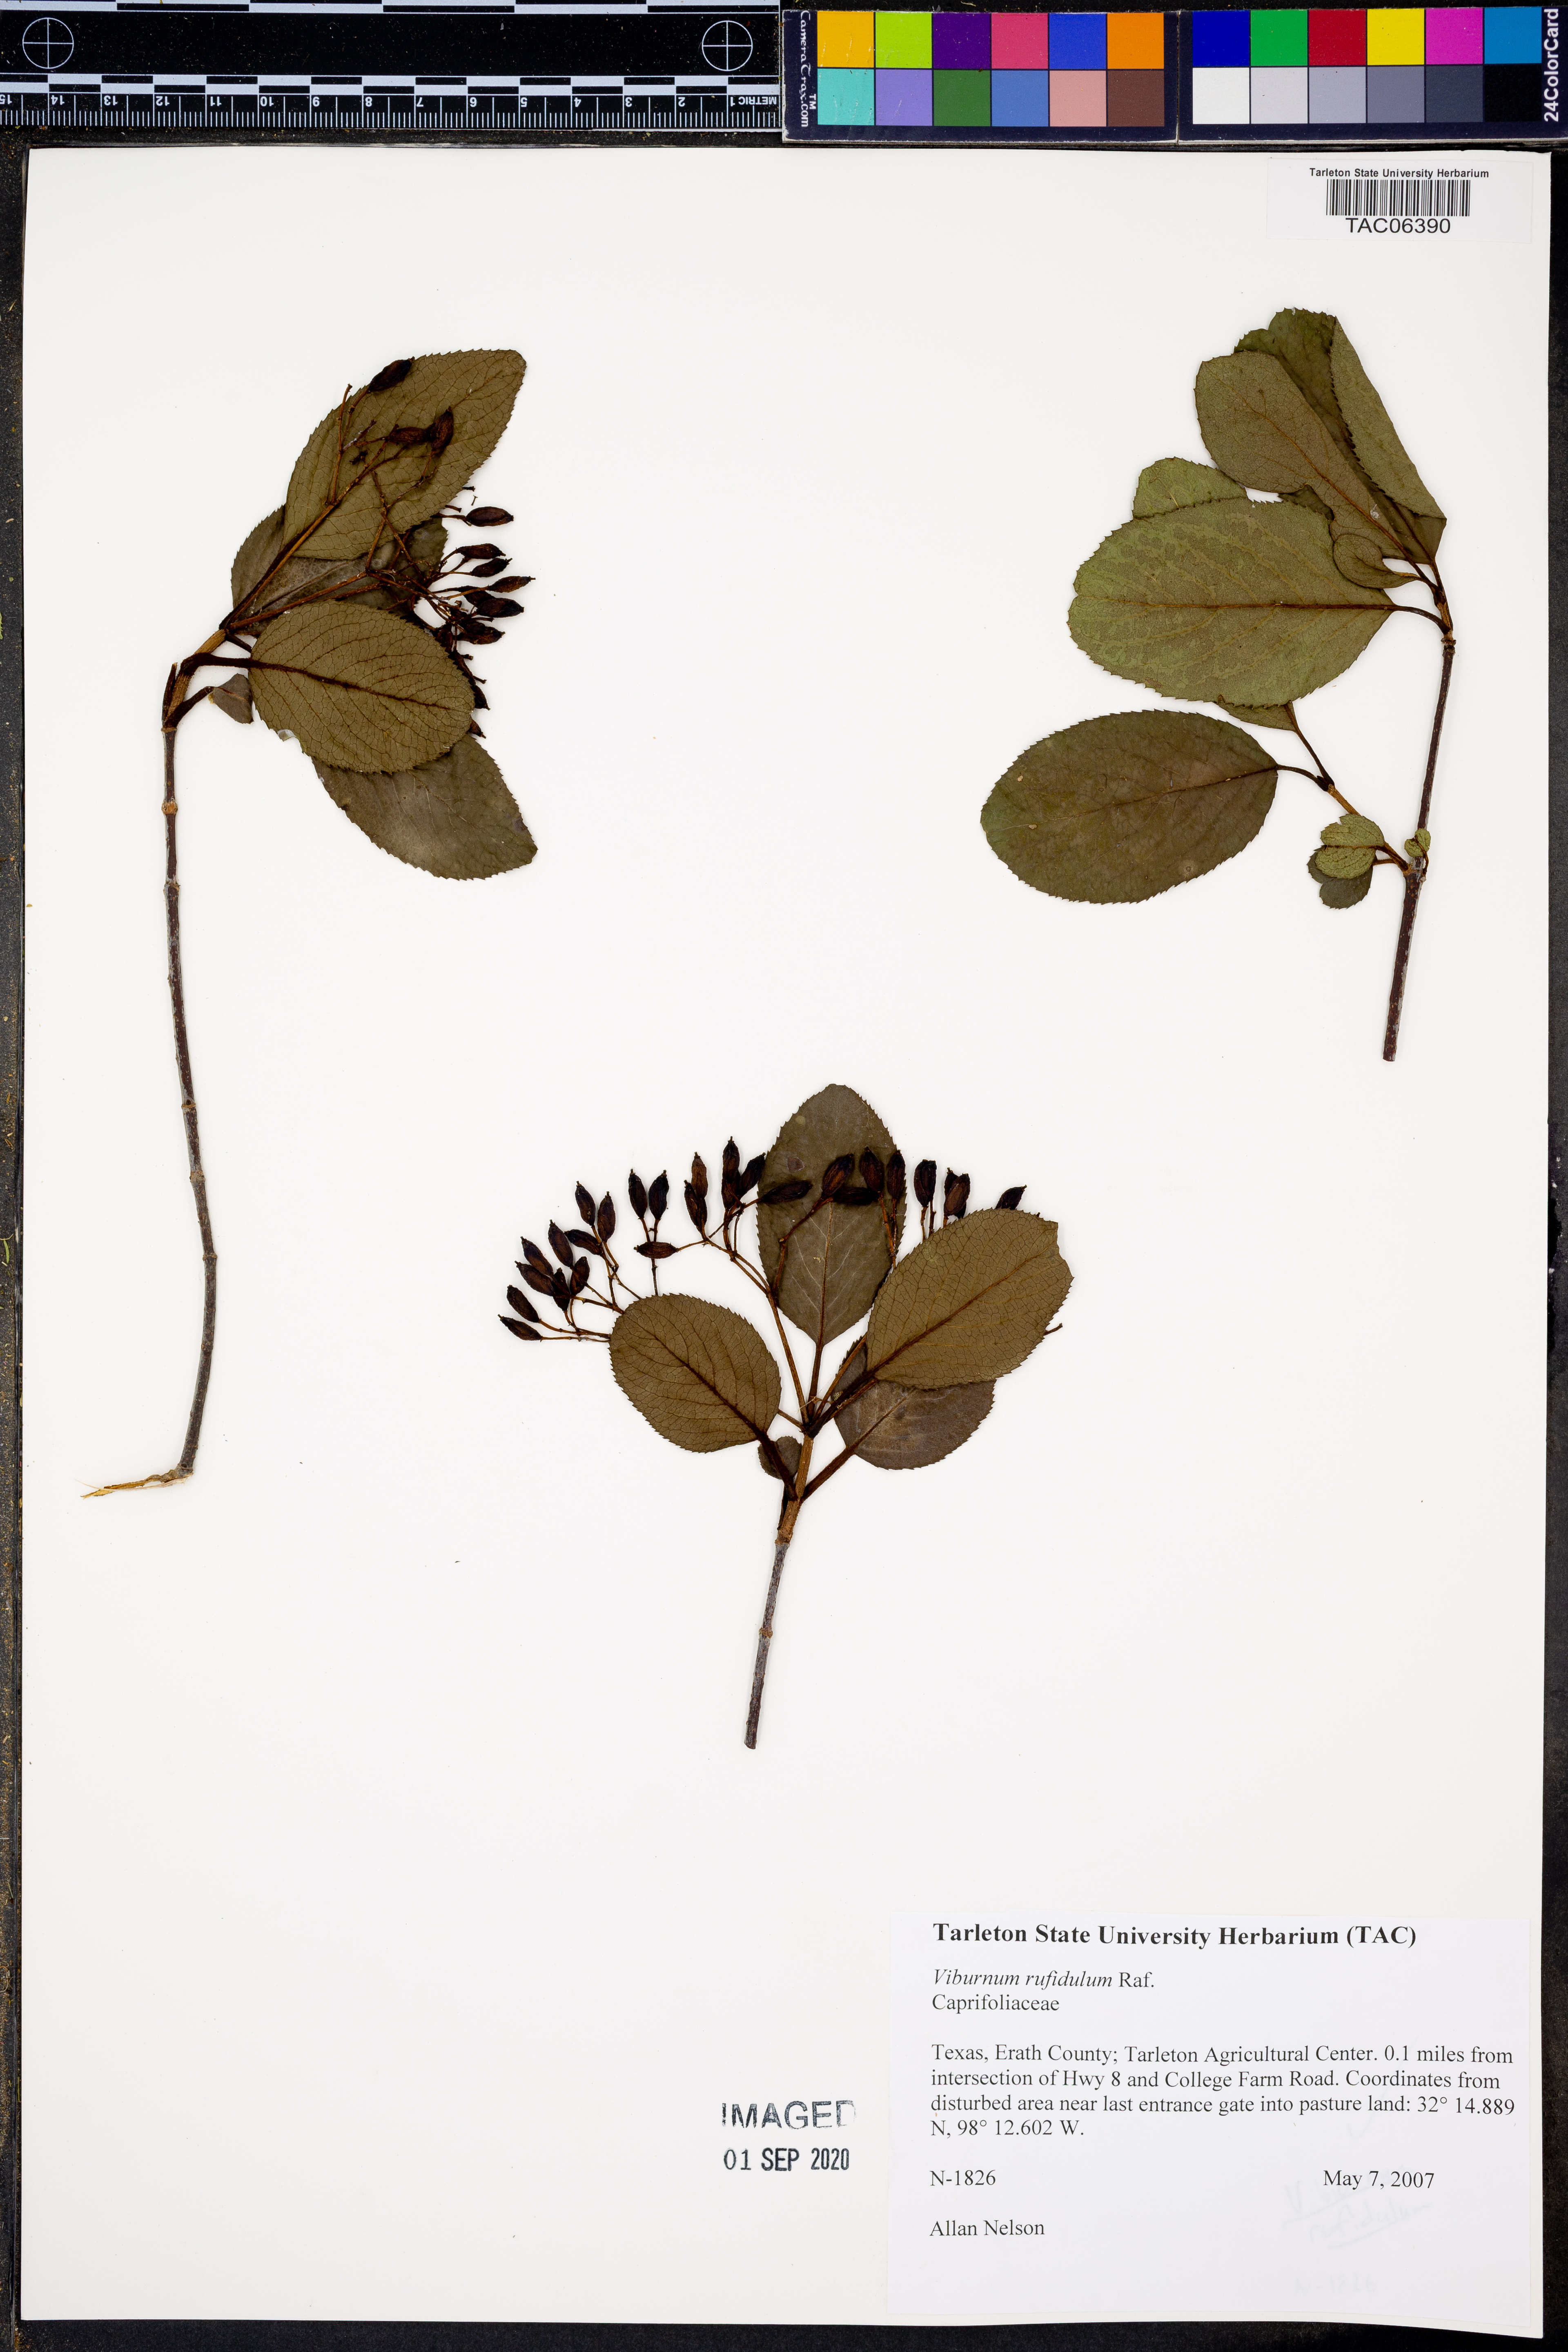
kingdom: Plantae
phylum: Tracheophyta
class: Magnoliopsida
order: Dipsacales
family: Viburnaceae
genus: Viburnum
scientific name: Viburnum rufidulum
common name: Blue haw
